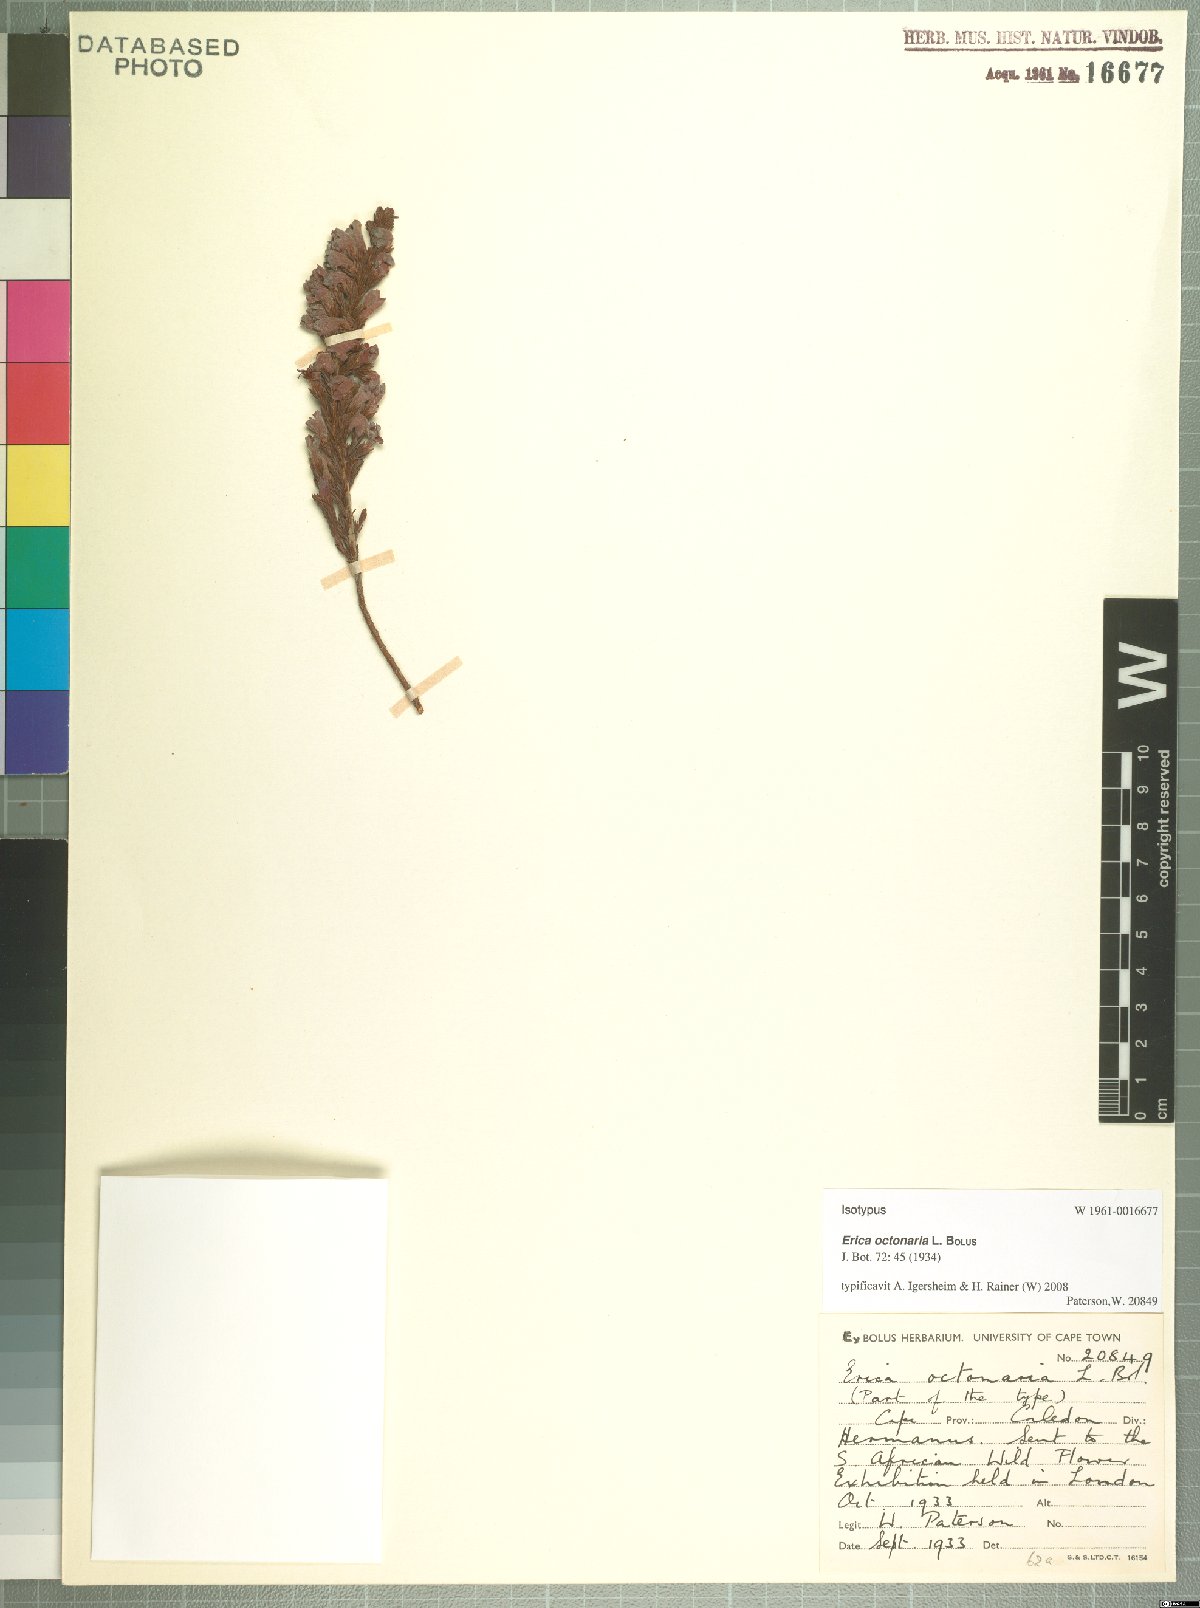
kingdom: Plantae
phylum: Tracheophyta
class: Magnoliopsida
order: Ericales
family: Ericaceae
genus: Erica
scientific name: Erica octonaria
